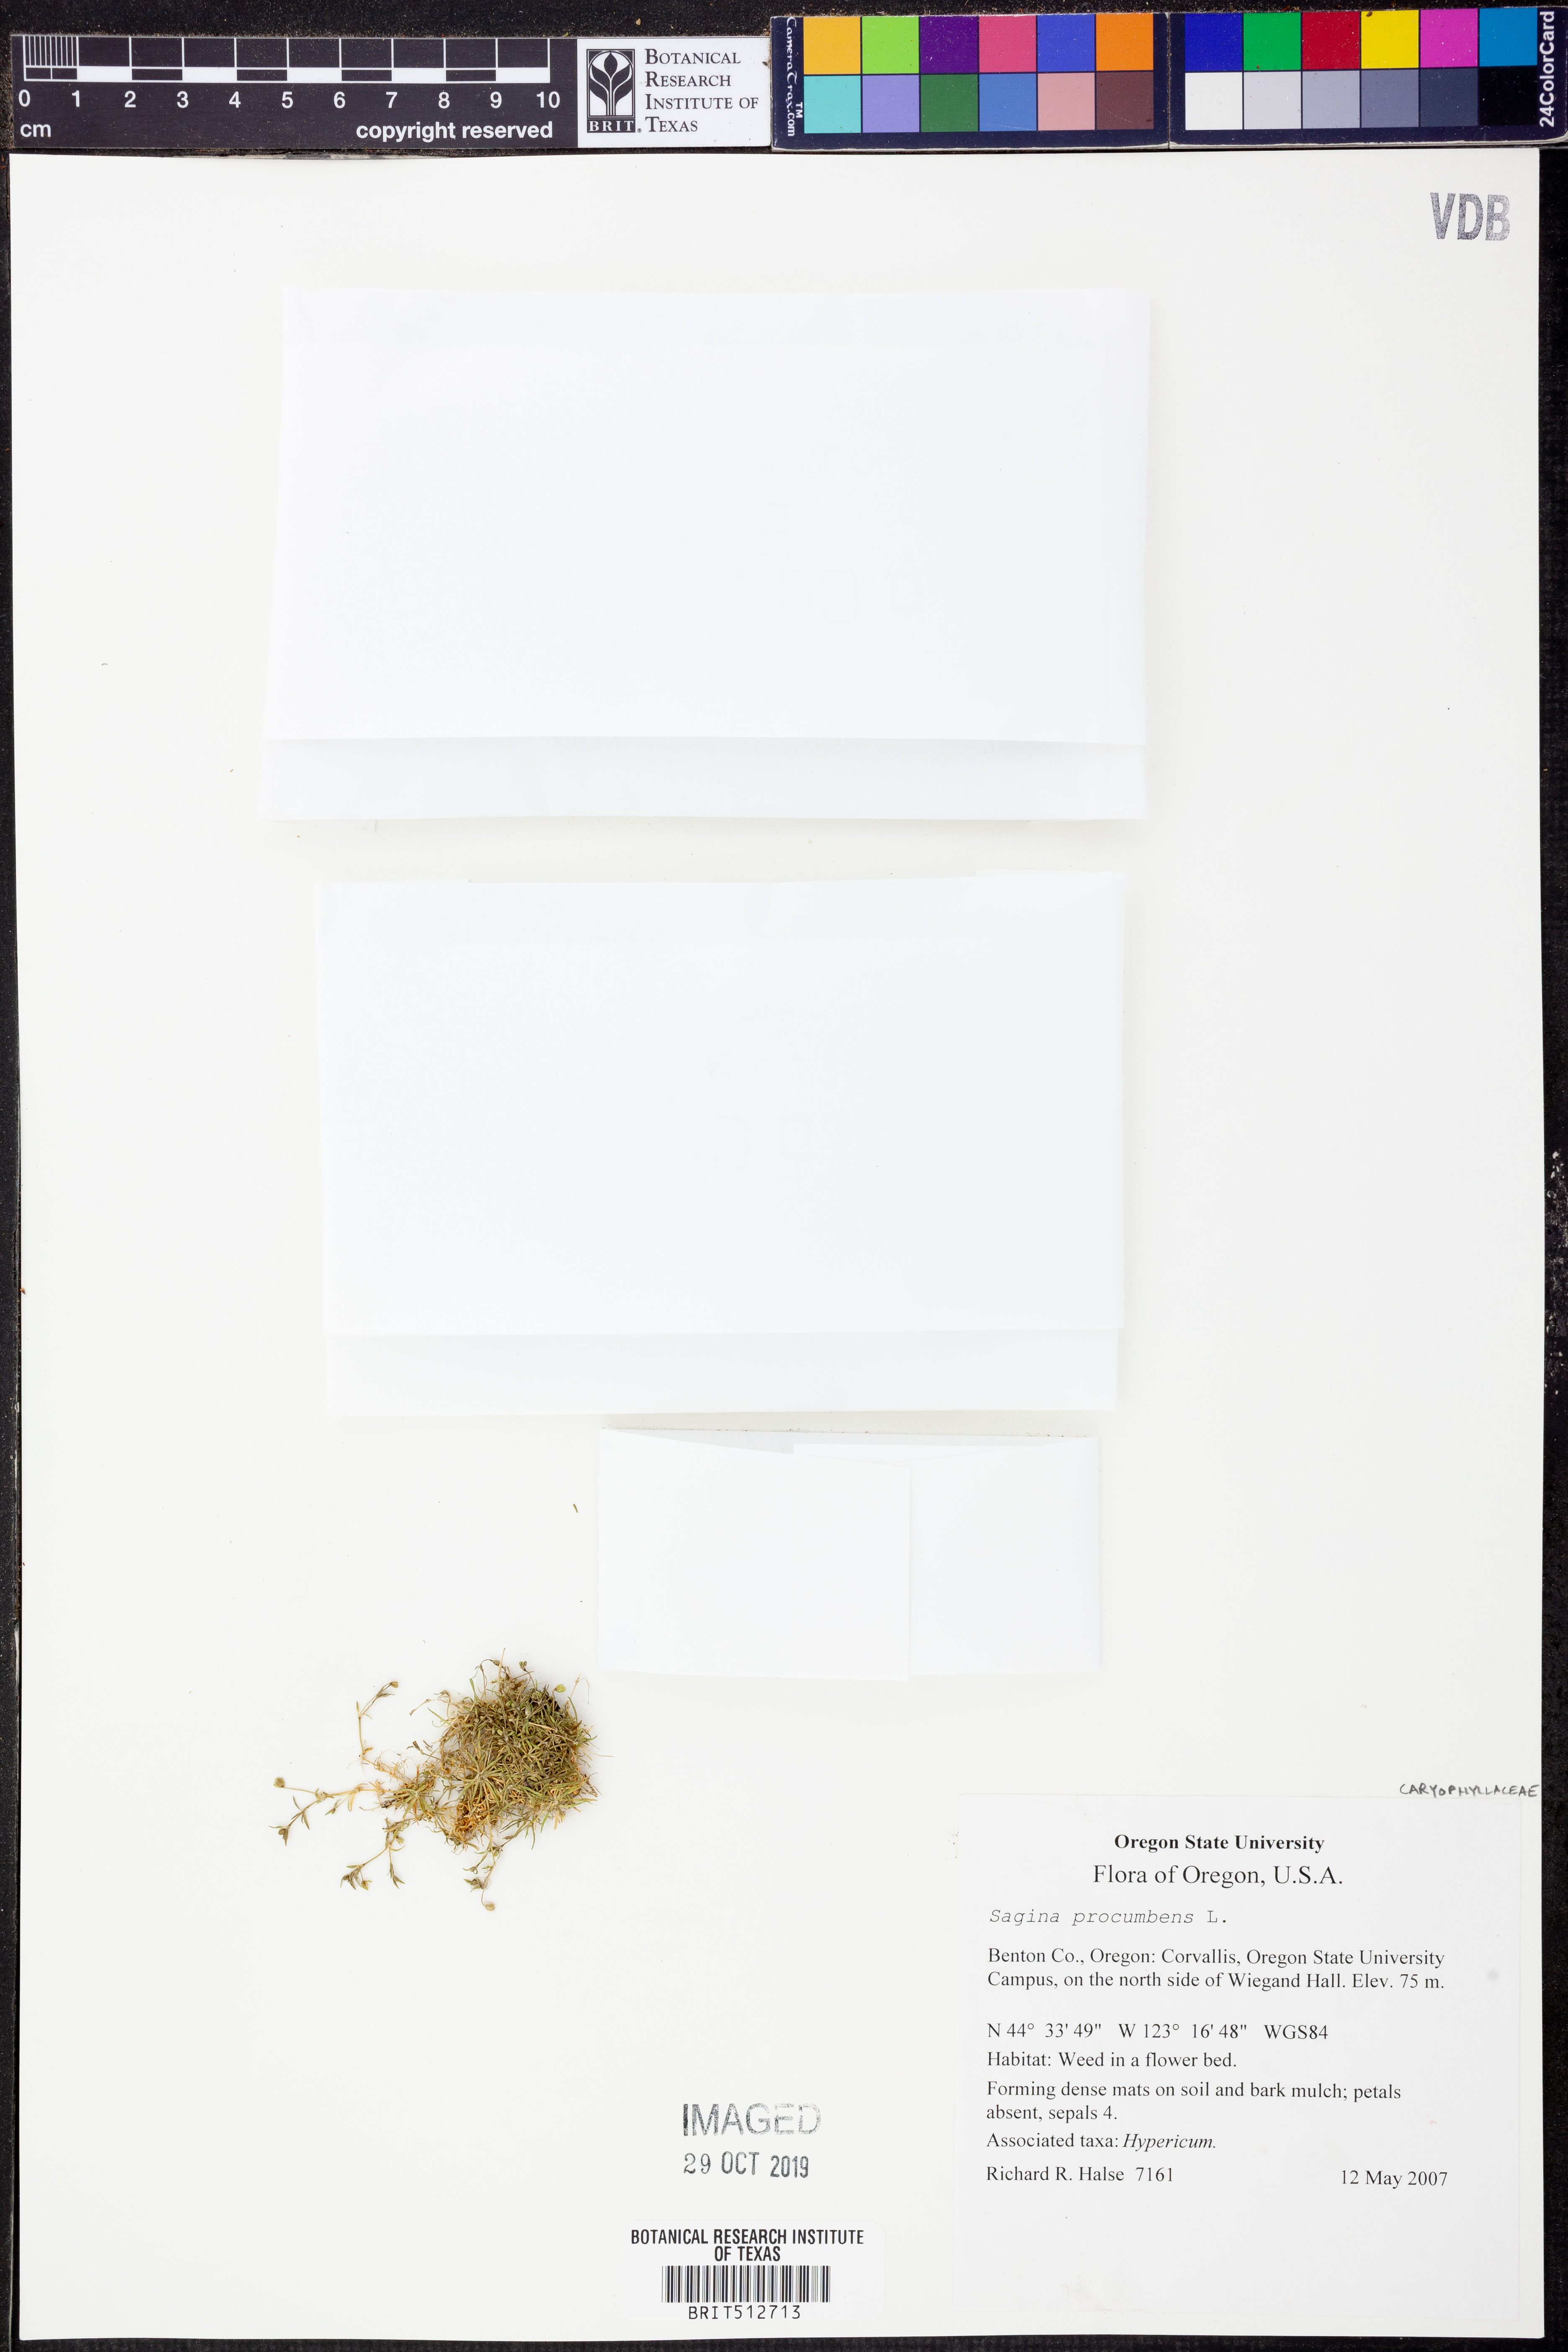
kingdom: Plantae
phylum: Tracheophyta
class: Magnoliopsida
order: Caryophyllales
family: Caryophyllaceae
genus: Sagina
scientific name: Sagina procumbens
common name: Procumbent pearlwort
